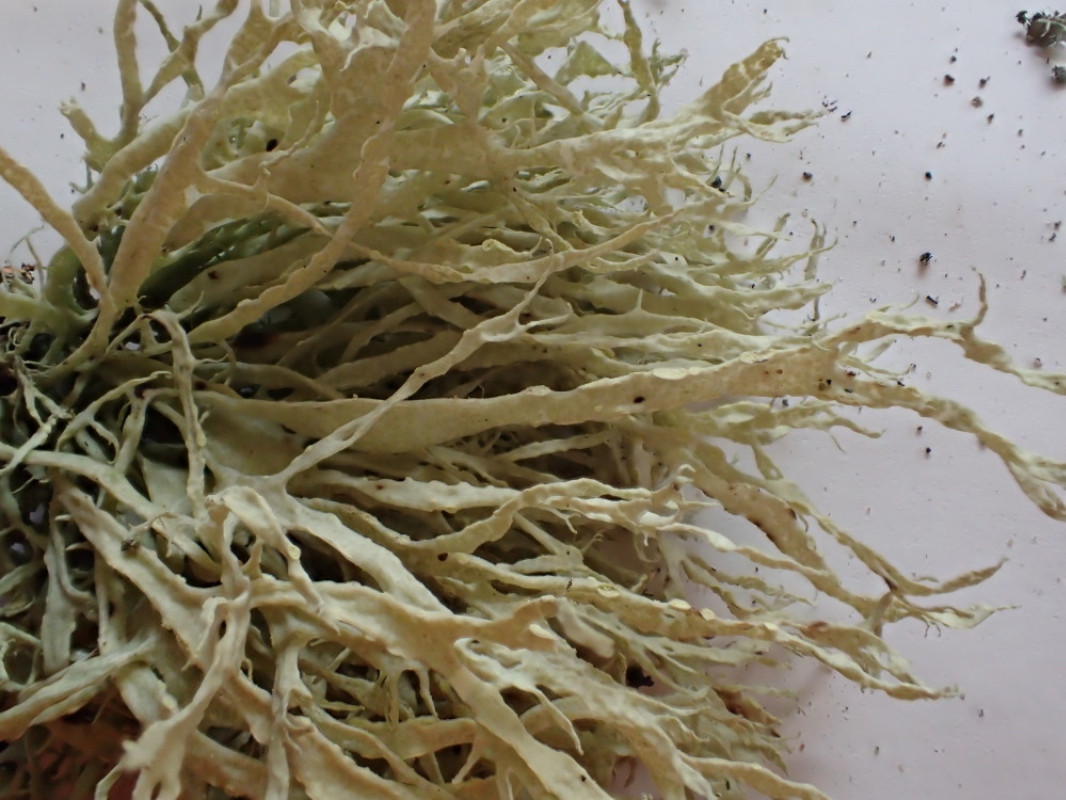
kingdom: Fungi
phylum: Ascomycota
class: Lecanoromycetes
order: Lecanorales
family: Ramalinaceae
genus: Ramalina
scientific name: Ramalina farinacea
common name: melet grenlav
